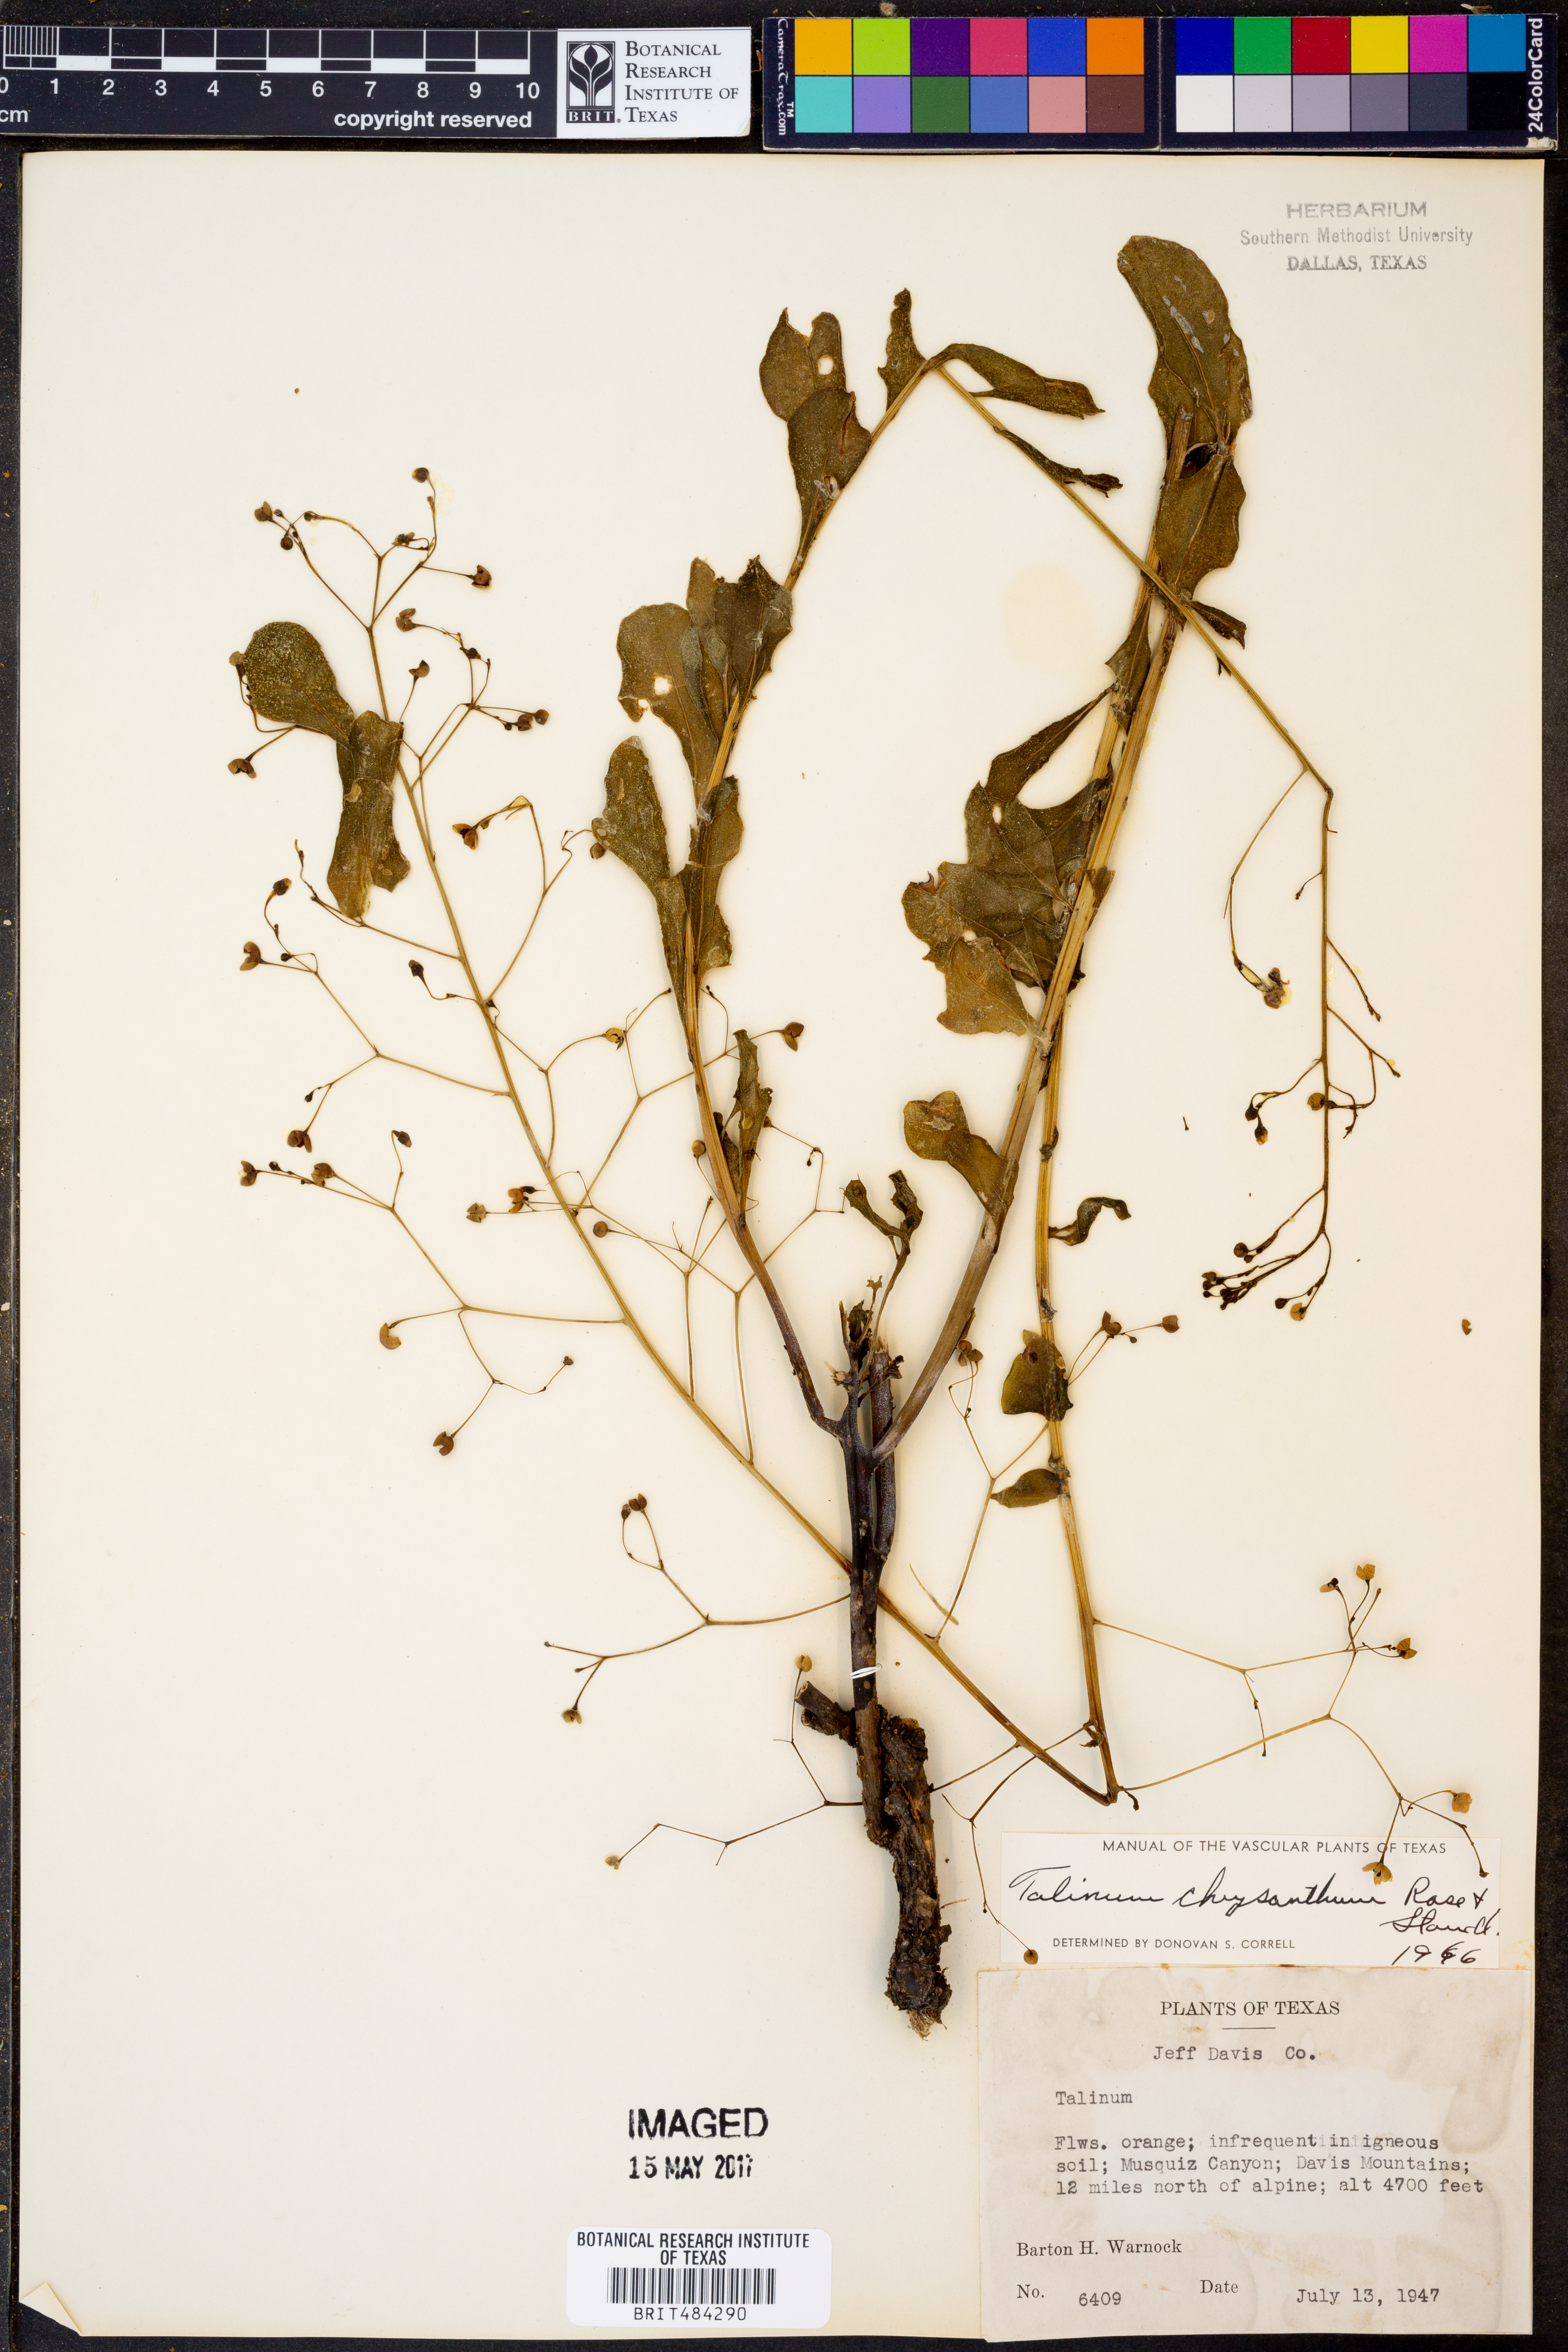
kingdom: Plantae
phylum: Tracheophyta
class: Magnoliopsida
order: Caryophyllales
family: Talinaceae
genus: Talinum
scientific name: Talinum paniculatum
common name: Jewels of opar
